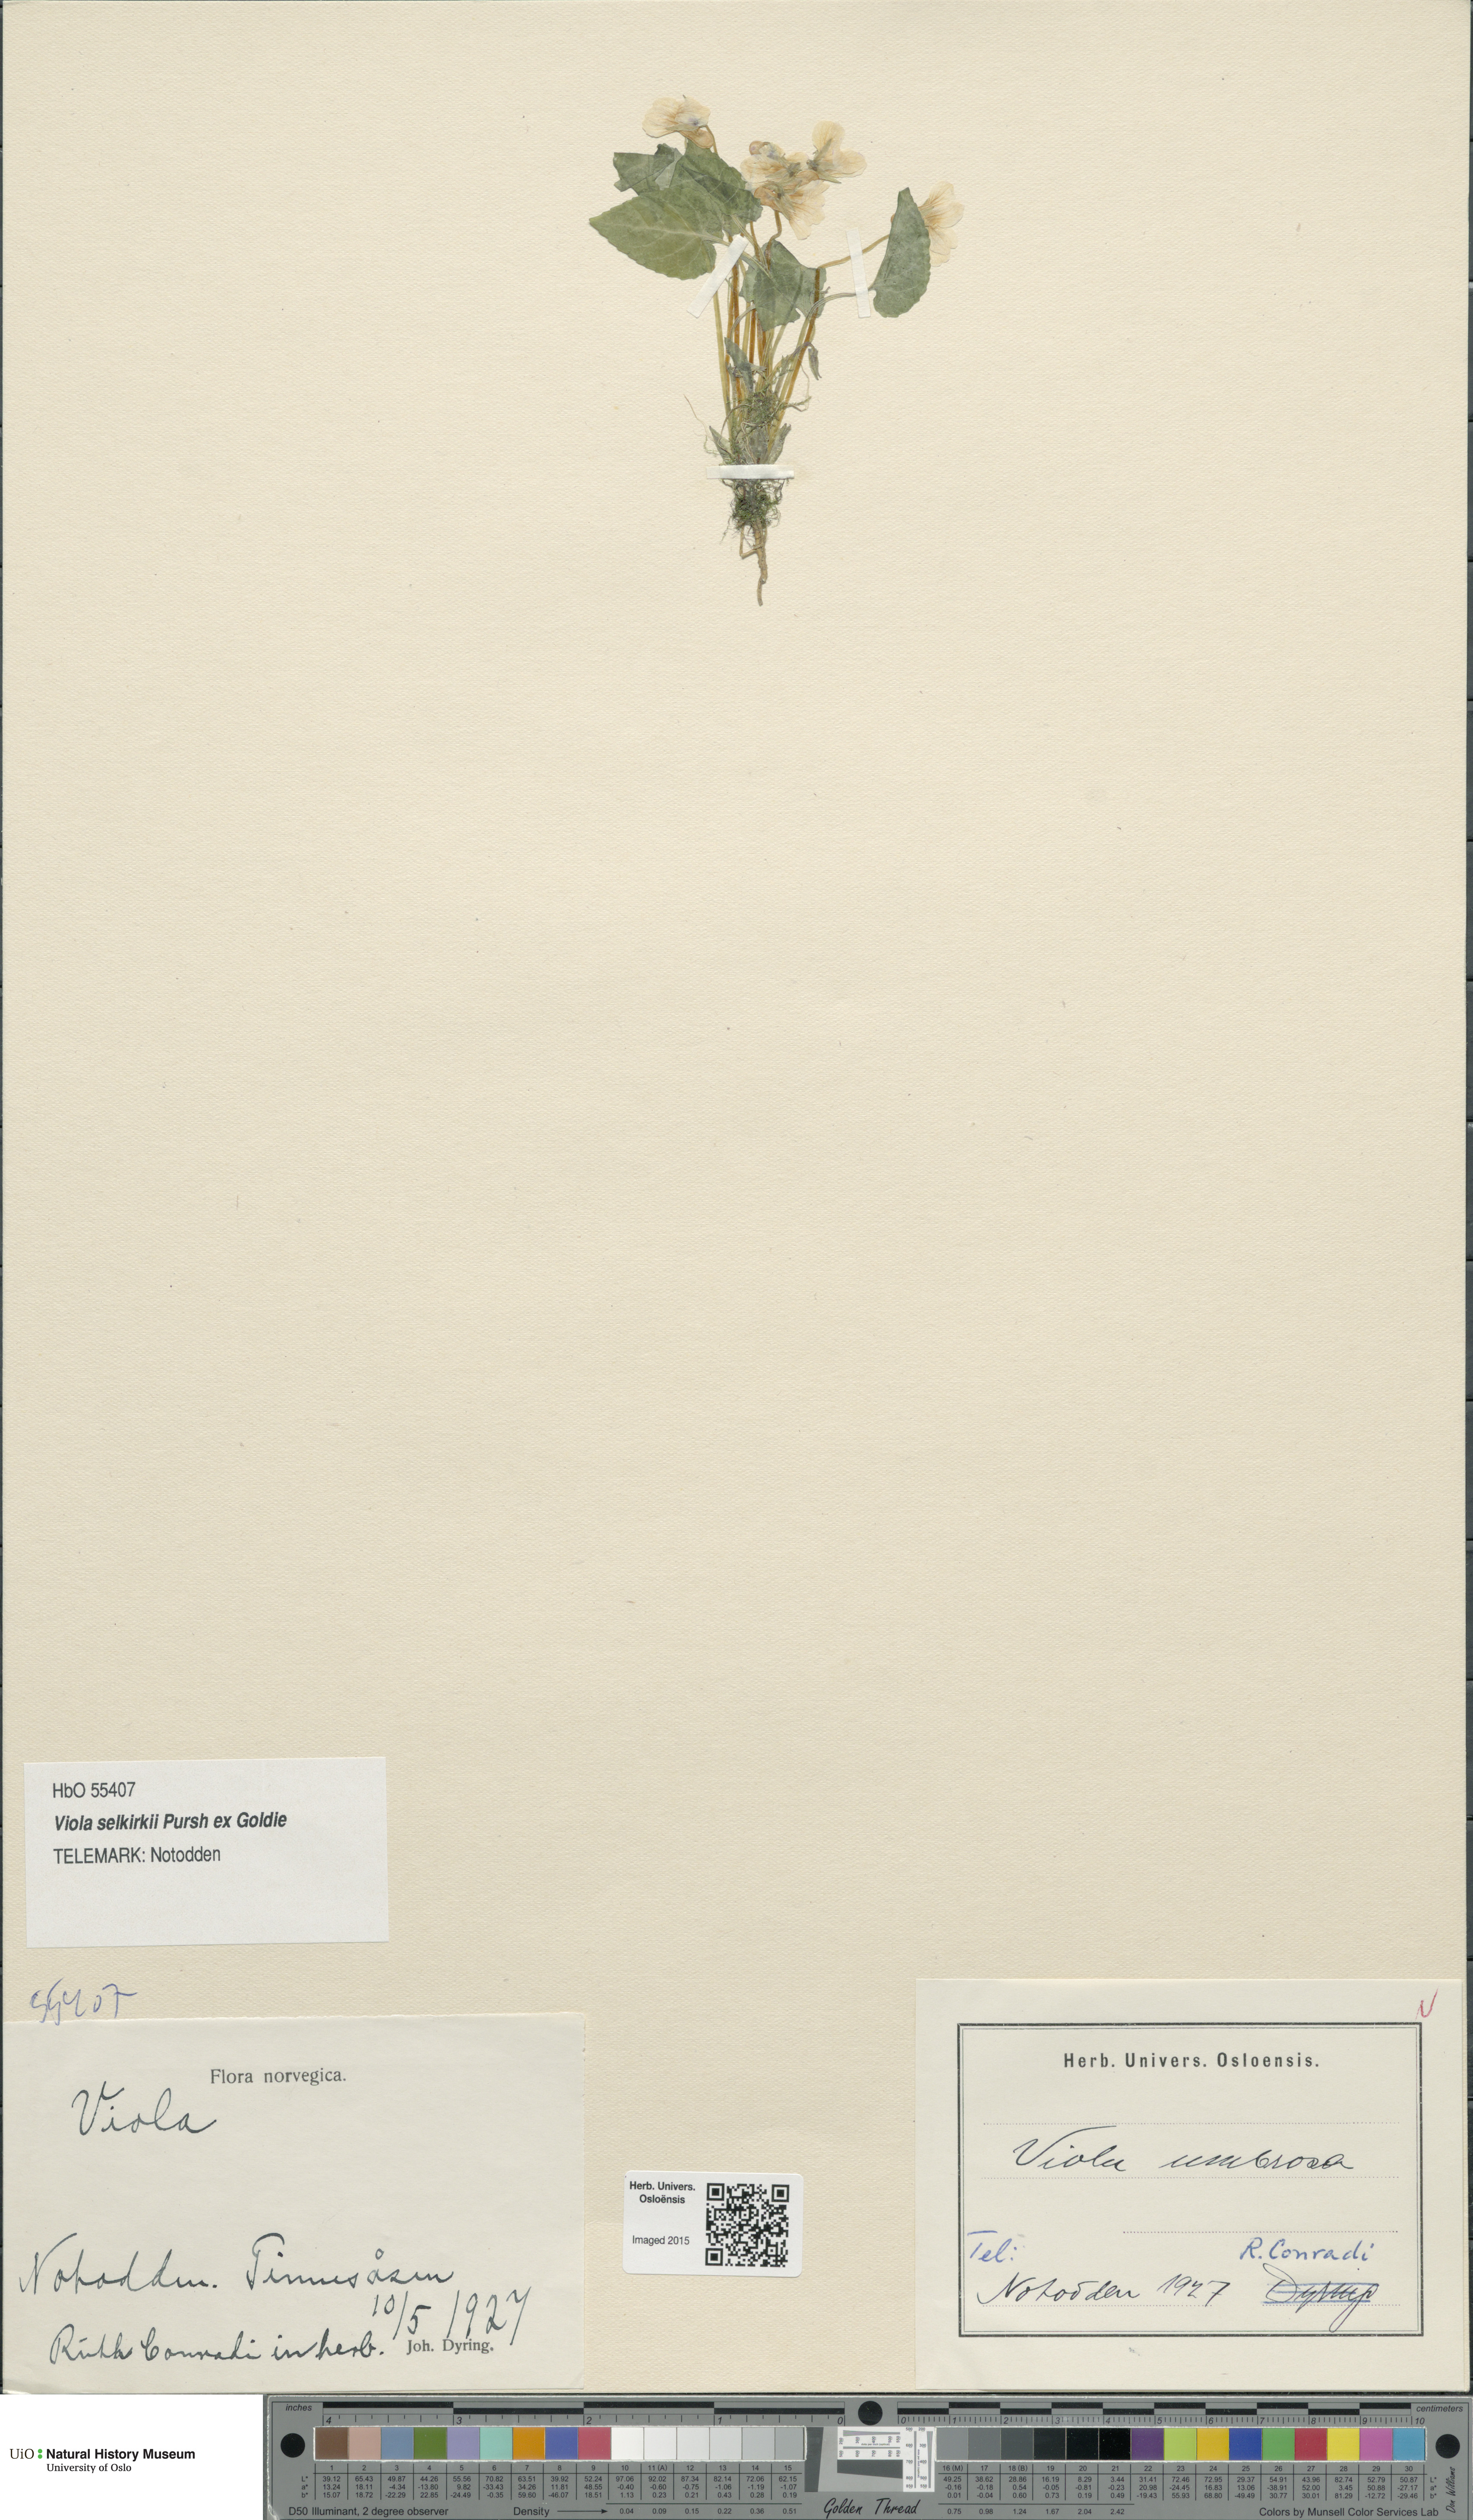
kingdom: Plantae
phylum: Tracheophyta
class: Magnoliopsida
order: Malpighiales
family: Violaceae
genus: Viola
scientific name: Viola selkirkii
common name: Selkirk's violet
